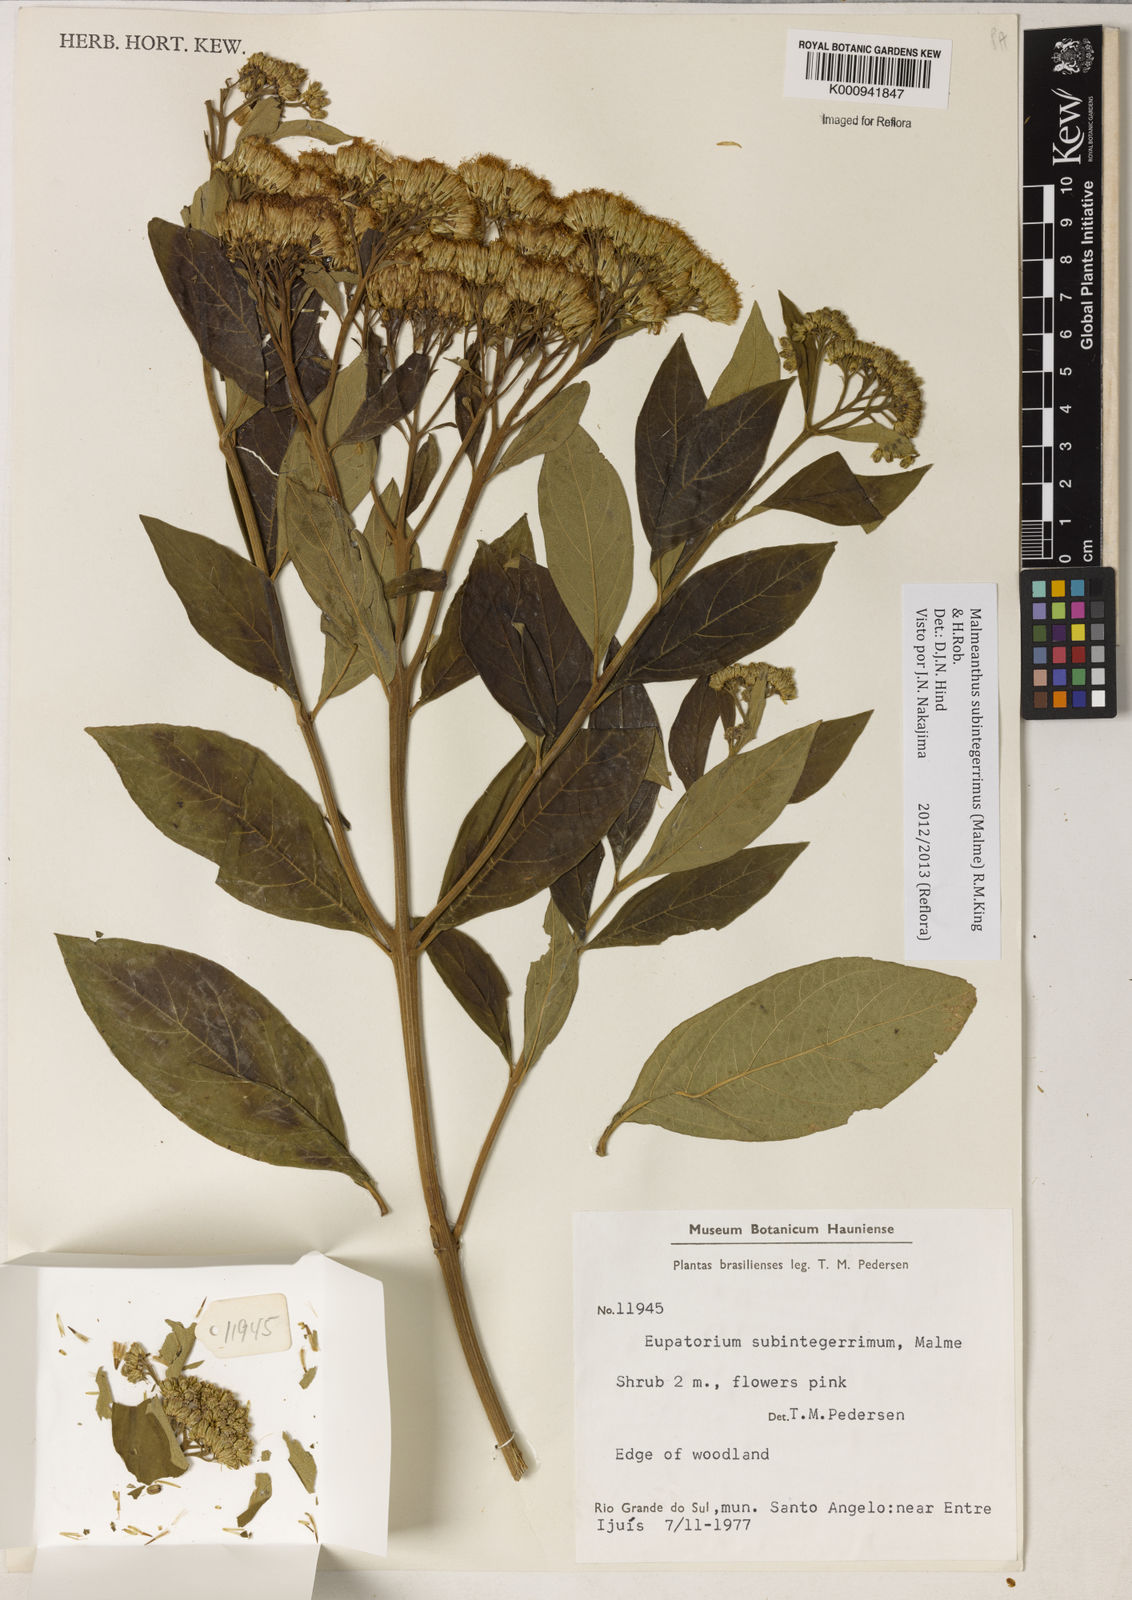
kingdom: Plantae
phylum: Tracheophyta
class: Magnoliopsida
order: Asterales
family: Asteraceae
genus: Malmeanthus
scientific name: Malmeanthus subintegerrimus
